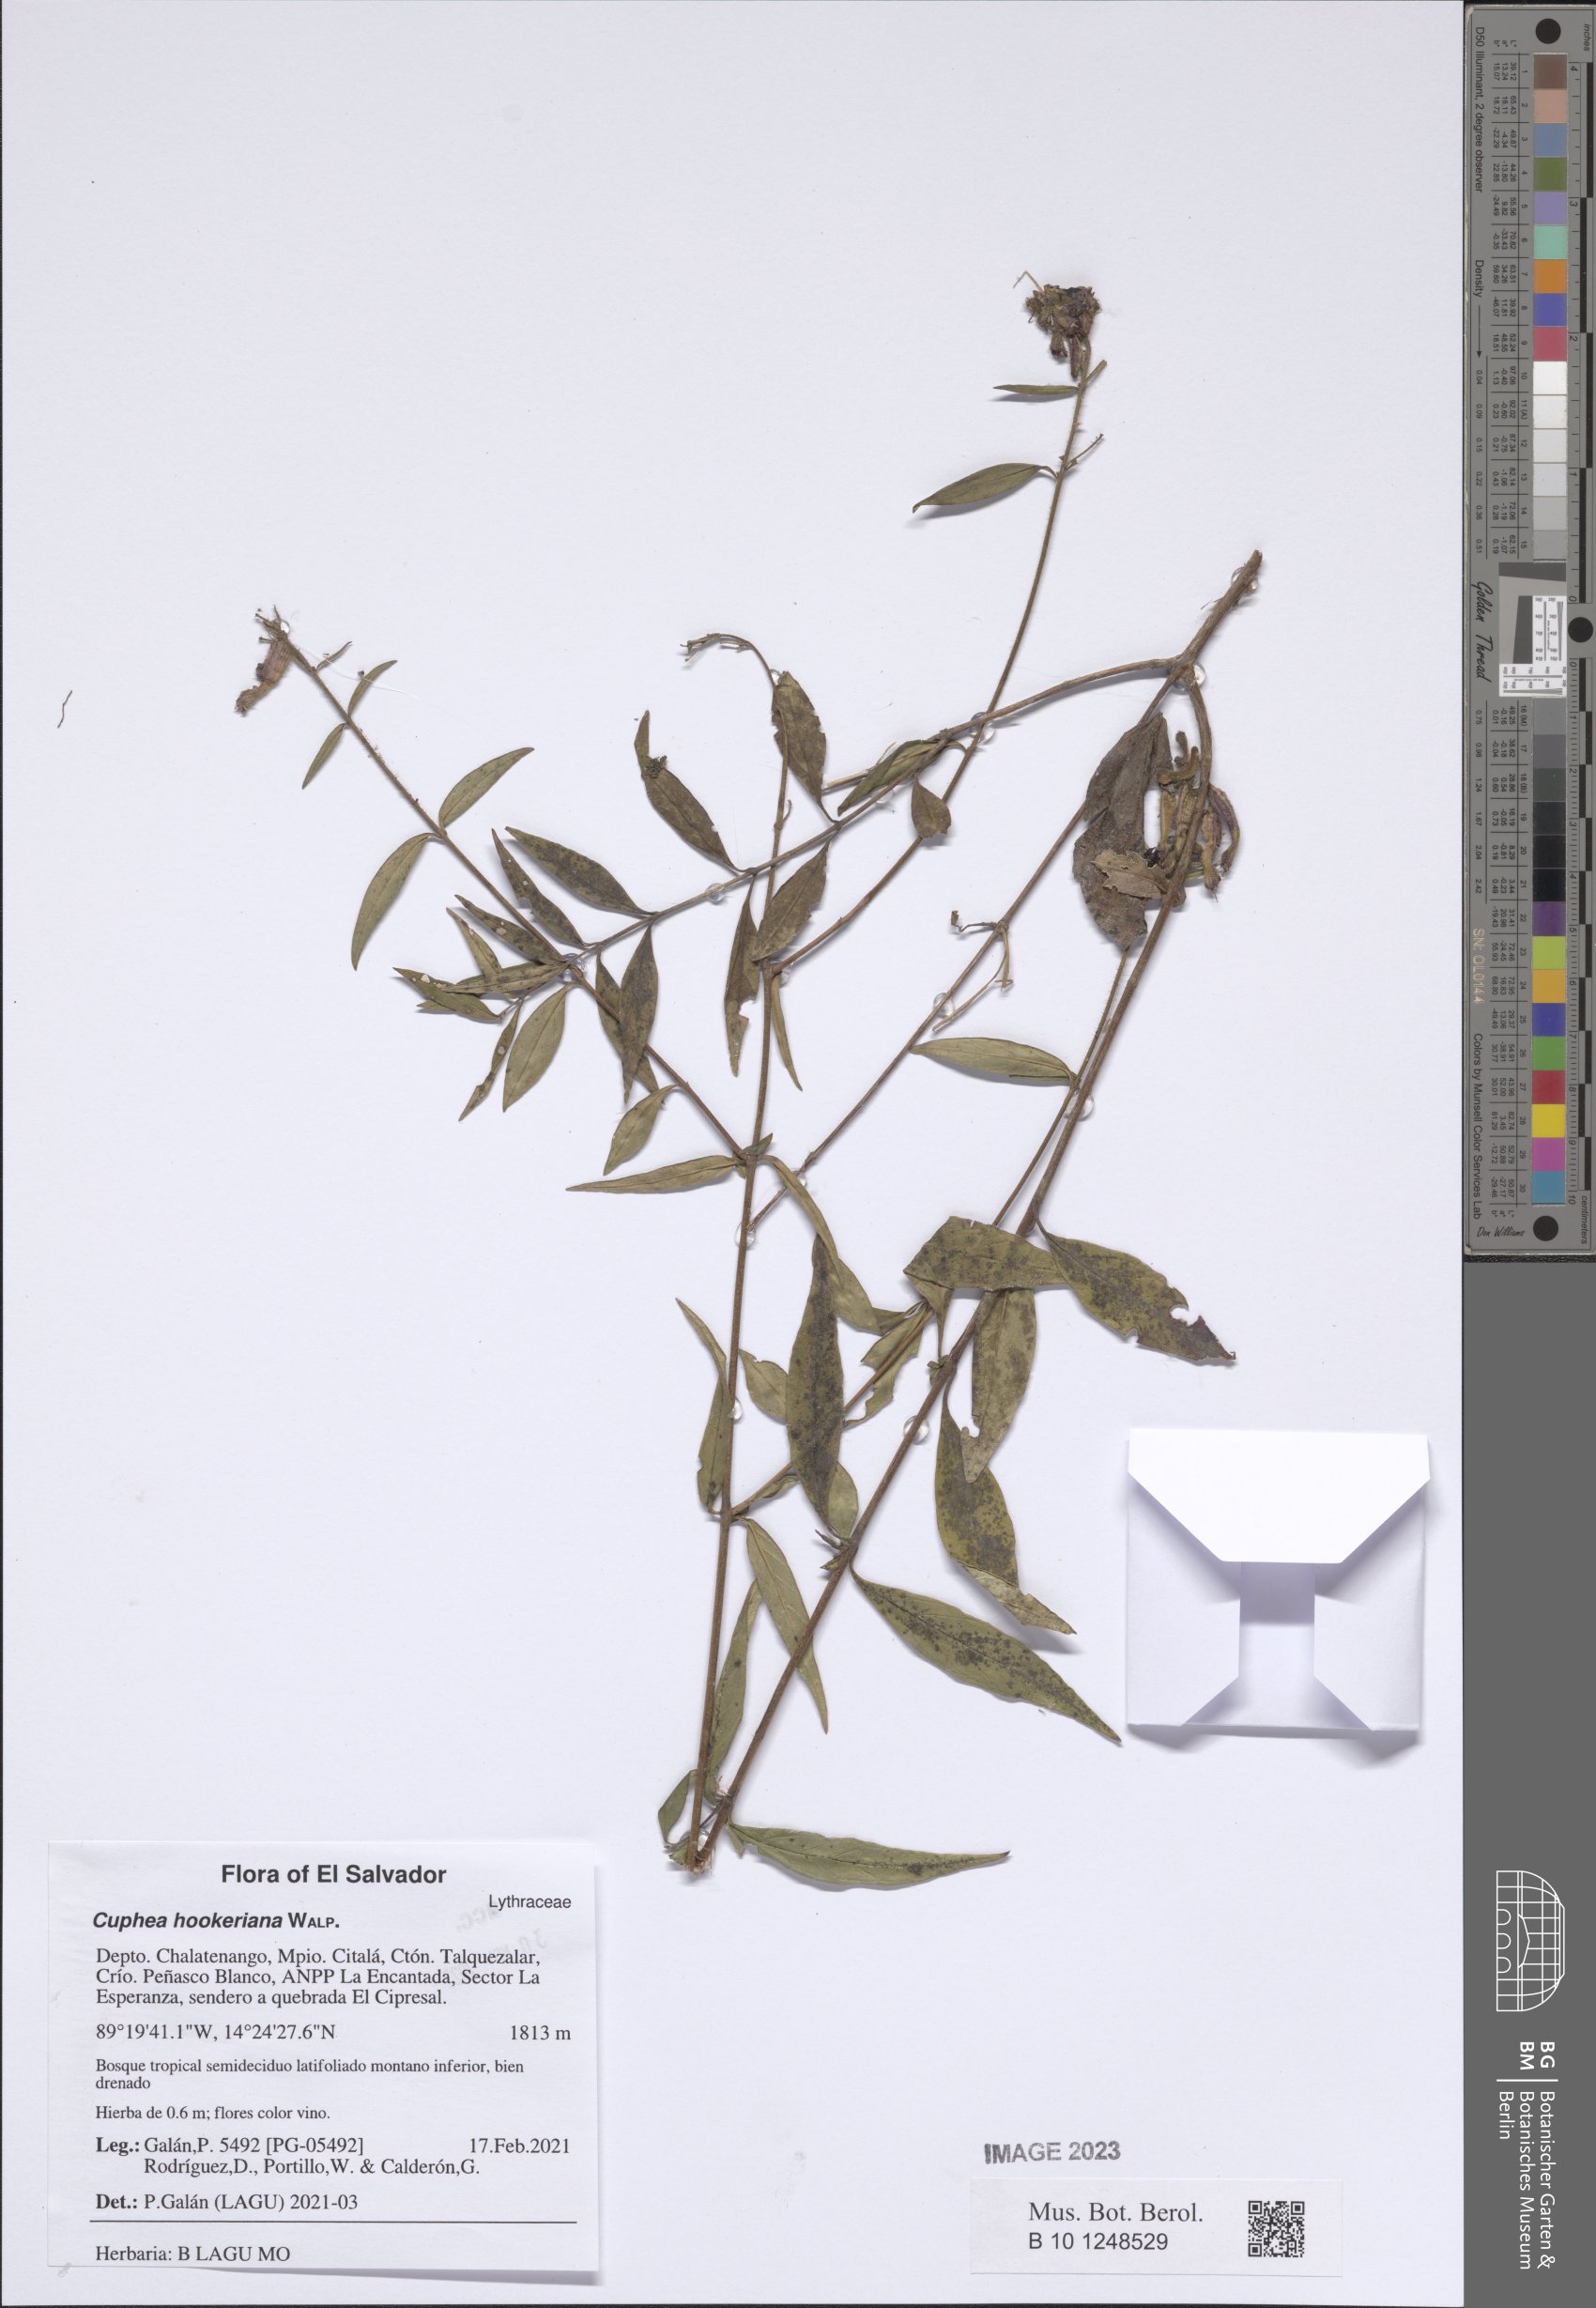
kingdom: Plantae
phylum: Tracheophyta
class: Magnoliopsida
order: Myrtales
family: Lythraceae
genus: Cuphea
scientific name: Cuphea hookeriana
